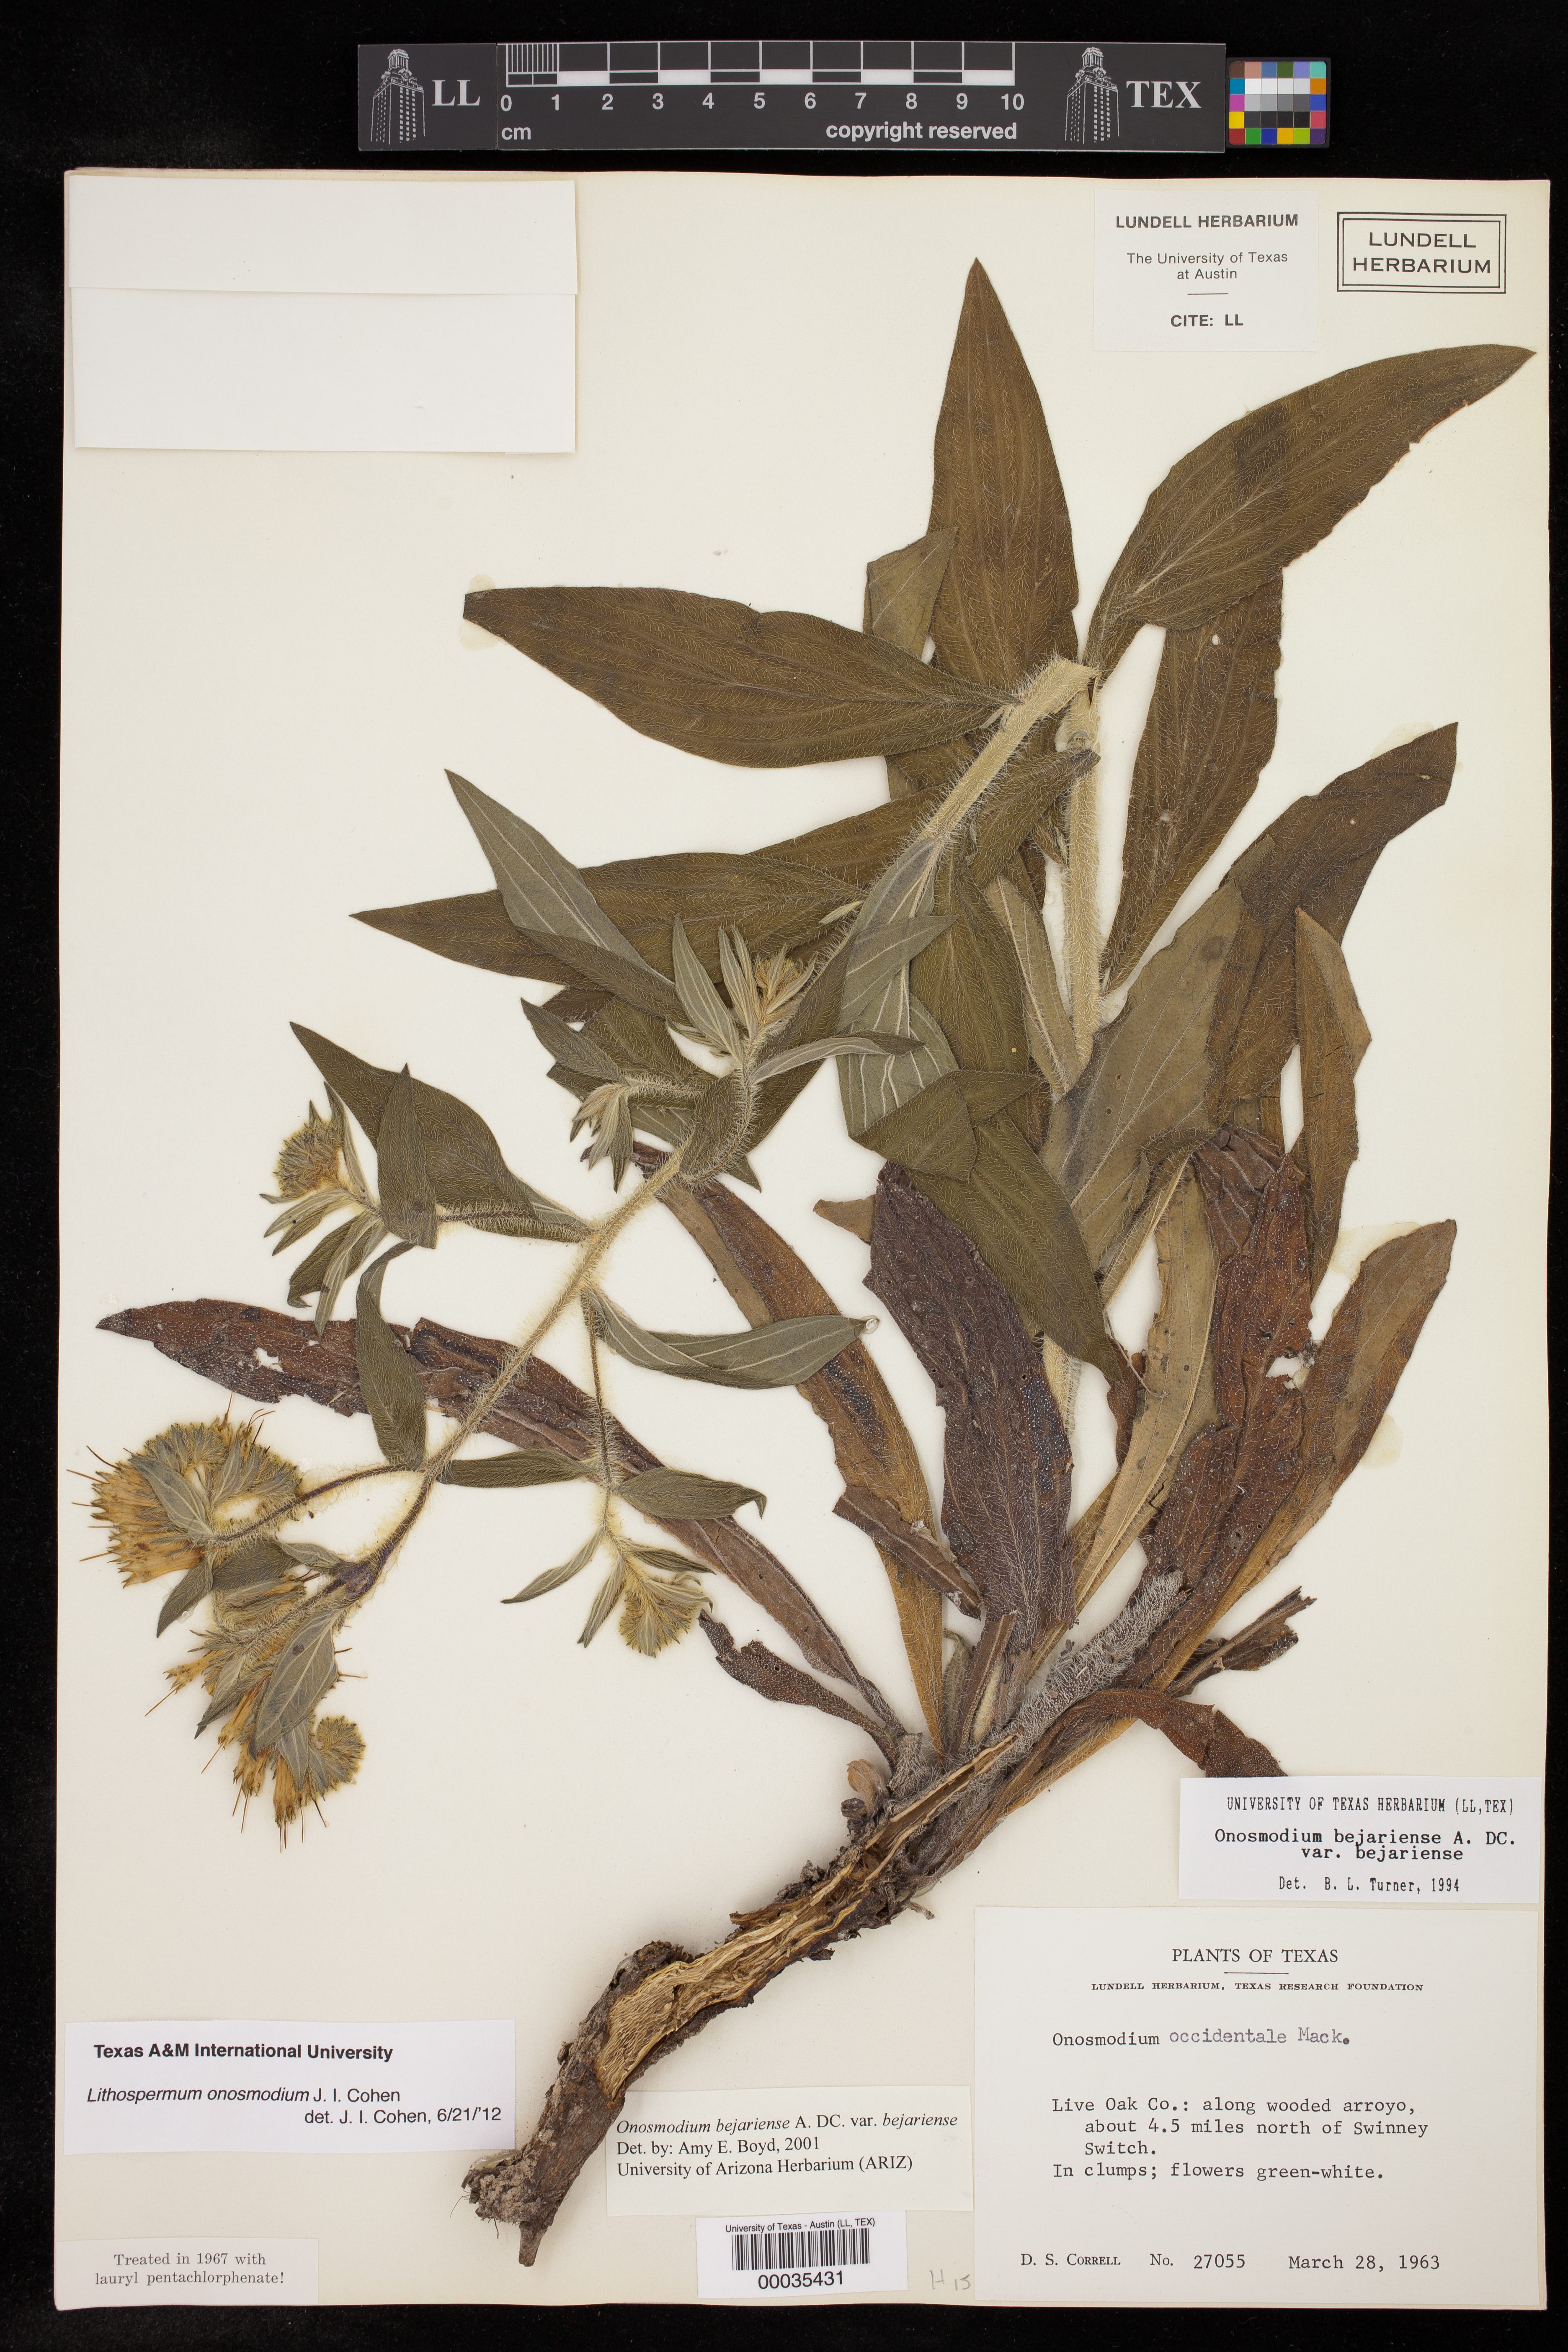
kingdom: Plantae
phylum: Tracheophyta
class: Magnoliopsida
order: Boraginales
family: Boraginaceae
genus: Lithospermum
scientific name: Lithospermum molle
